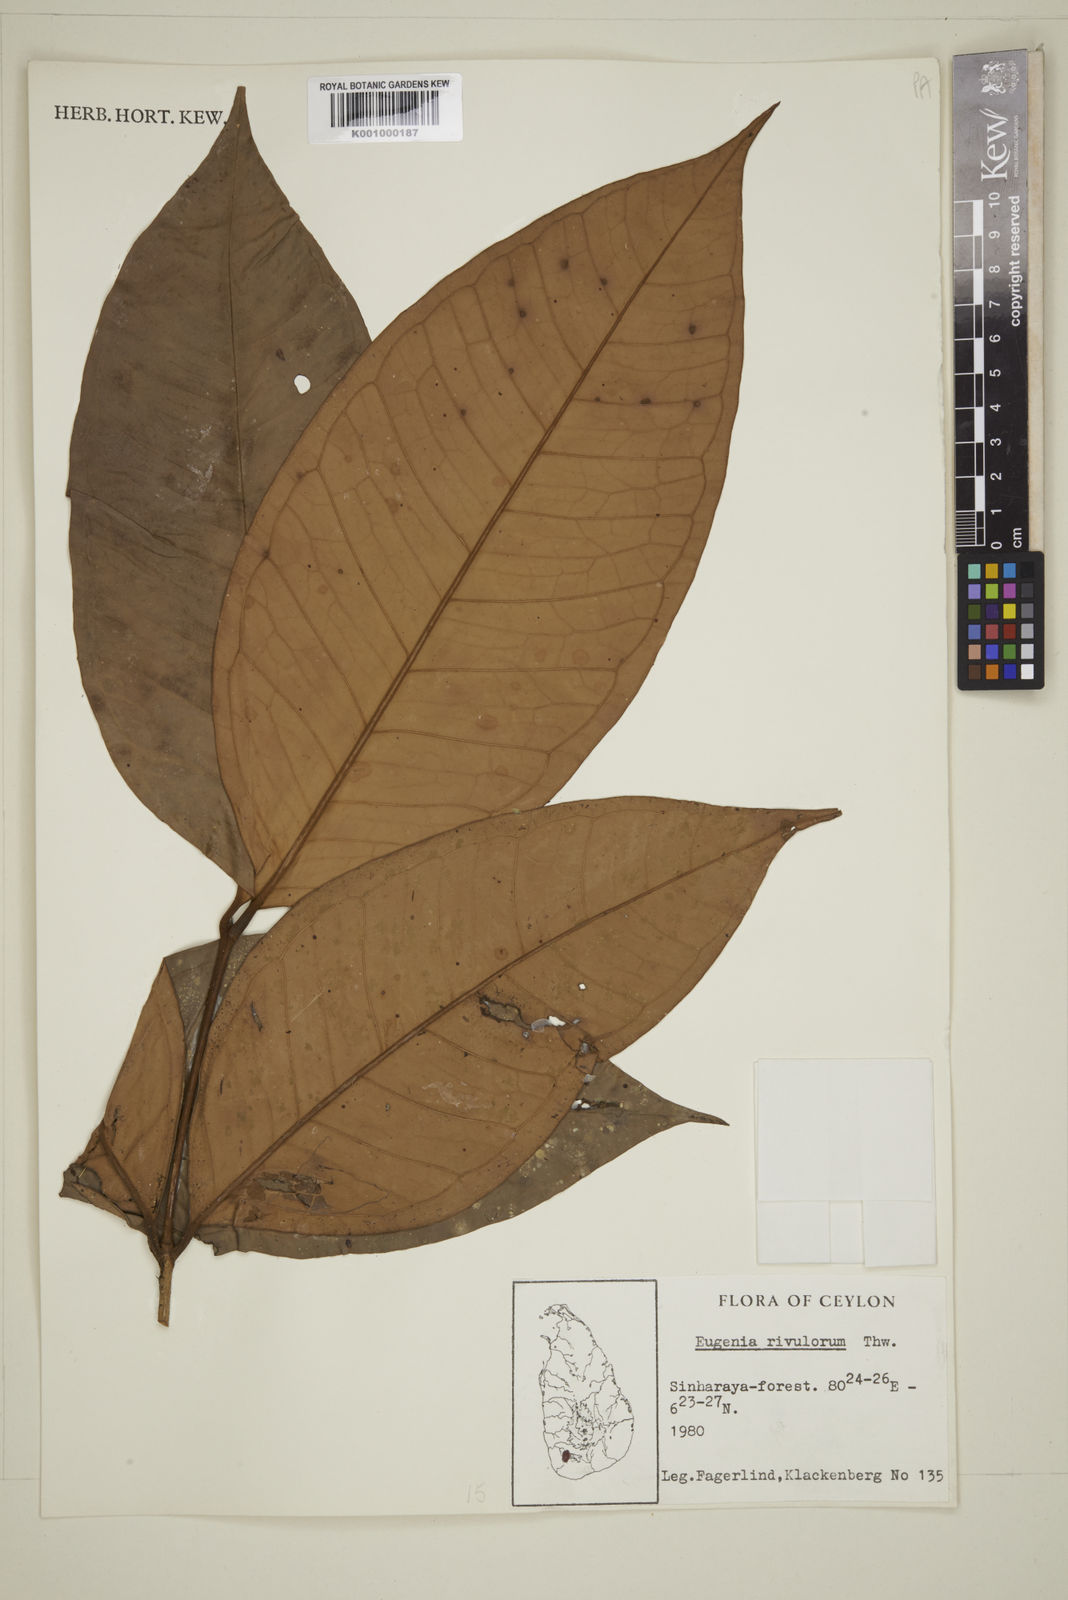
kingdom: Plantae
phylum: Tracheophyta
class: Magnoliopsida
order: Myrtales
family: Myrtaceae
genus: Eugenia
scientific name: Eugenia rivulorum
